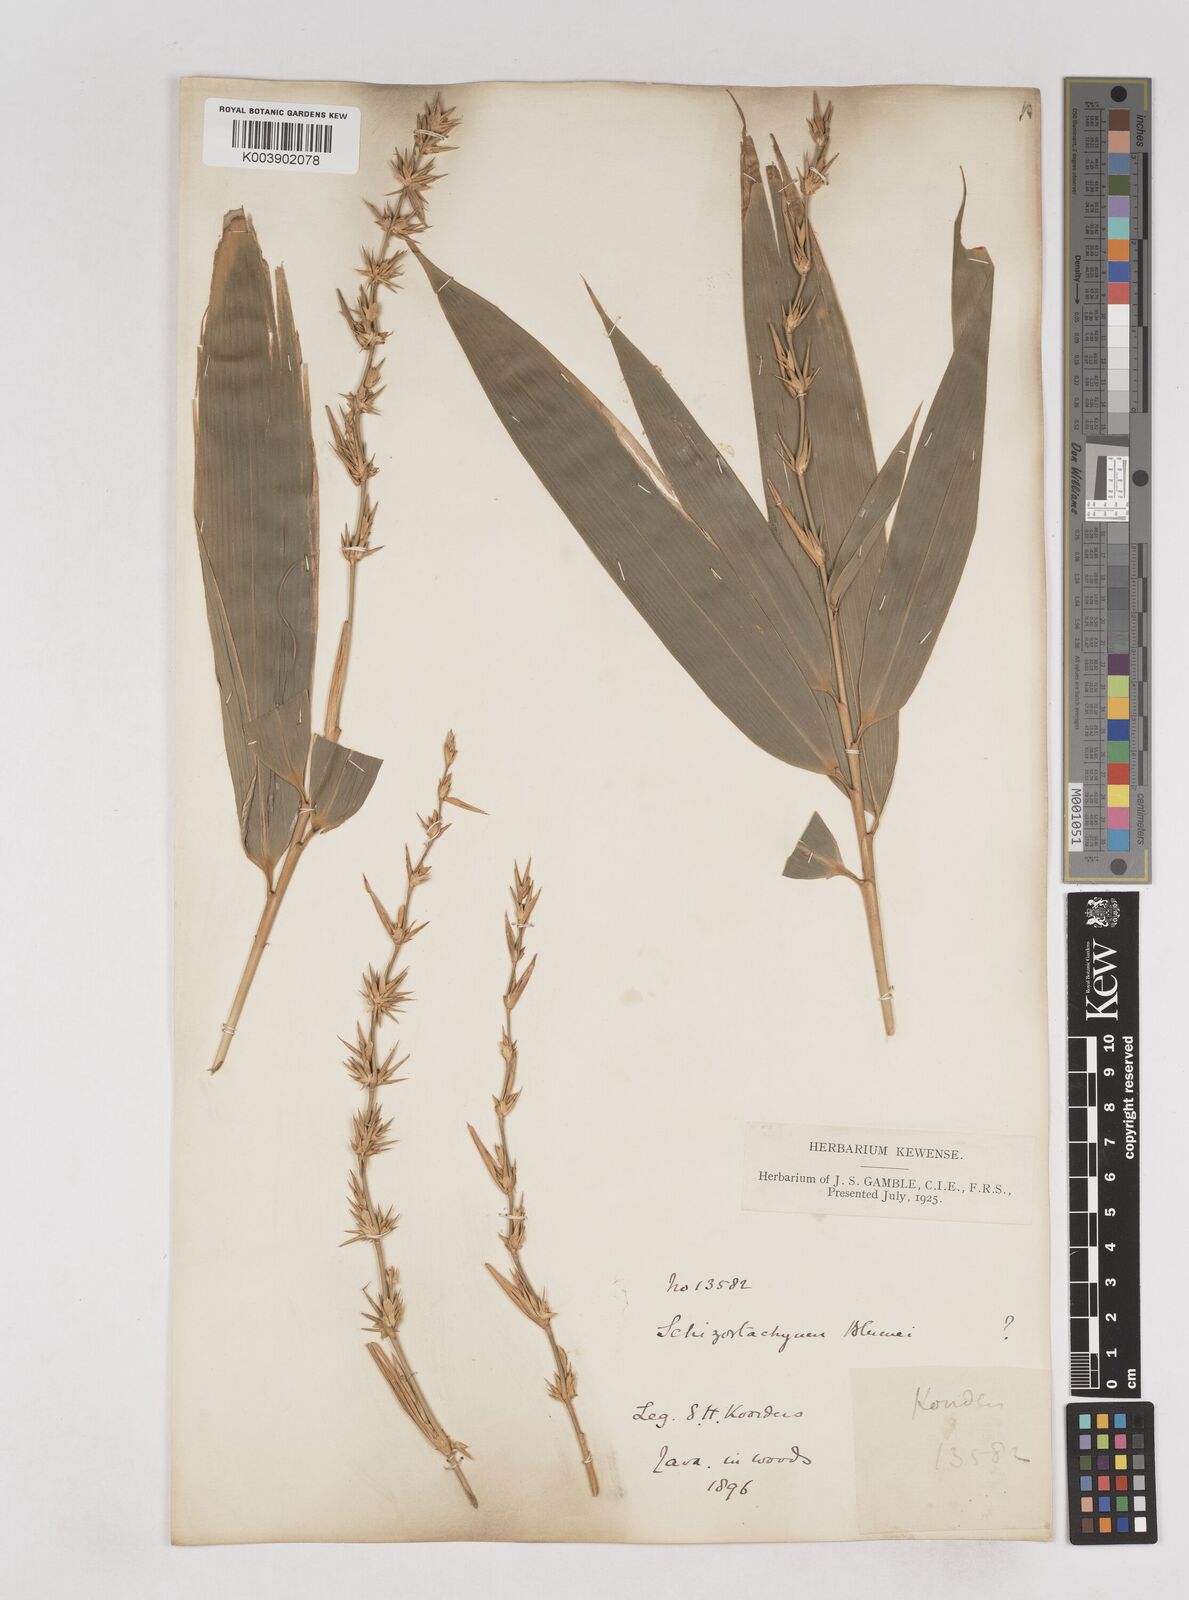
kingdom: Plantae
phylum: Tracheophyta
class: Liliopsida
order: Poales
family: Poaceae
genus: Schizostachyum
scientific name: Schizostachyum
